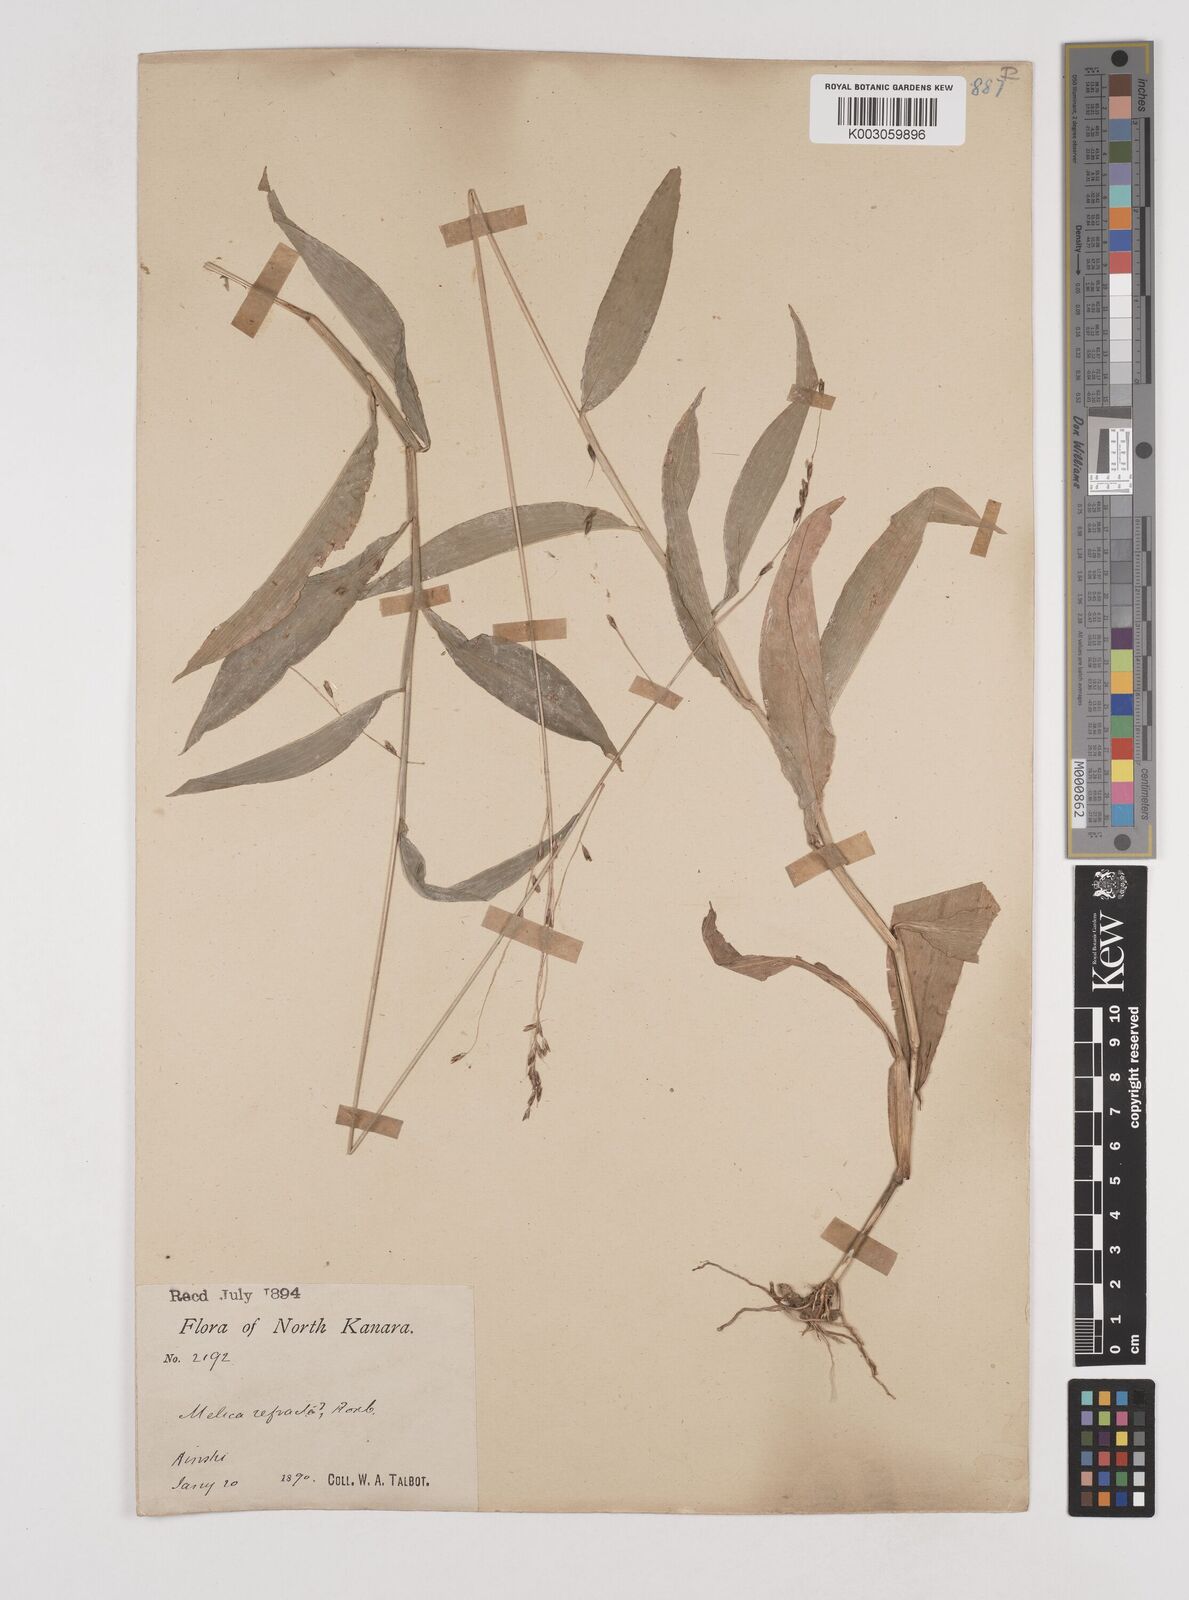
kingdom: Plantae
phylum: Tracheophyta
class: Liliopsida
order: Poales
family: Poaceae
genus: Centotheca
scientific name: Centotheca lappacea
